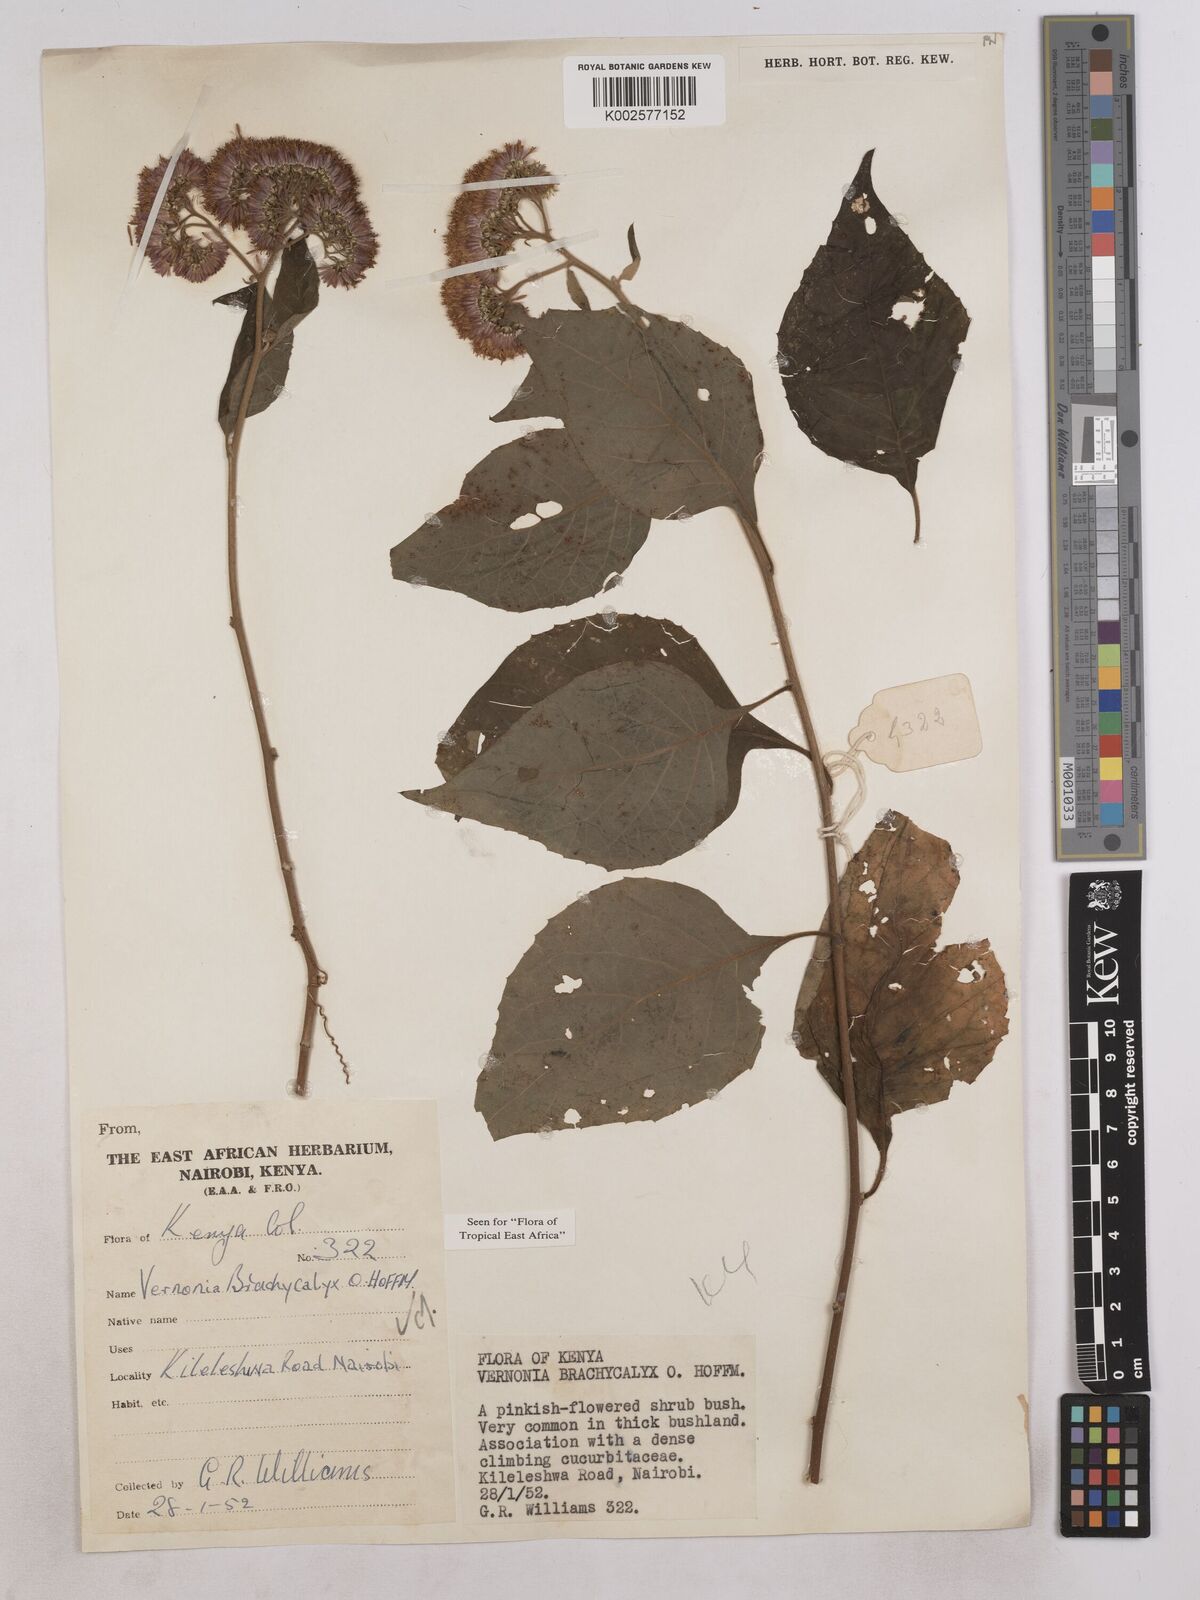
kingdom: Plantae
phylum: Tracheophyta
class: Magnoliopsida
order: Asterales
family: Asteraceae
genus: Hoffmannanthus
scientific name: Hoffmannanthus abbotianus
